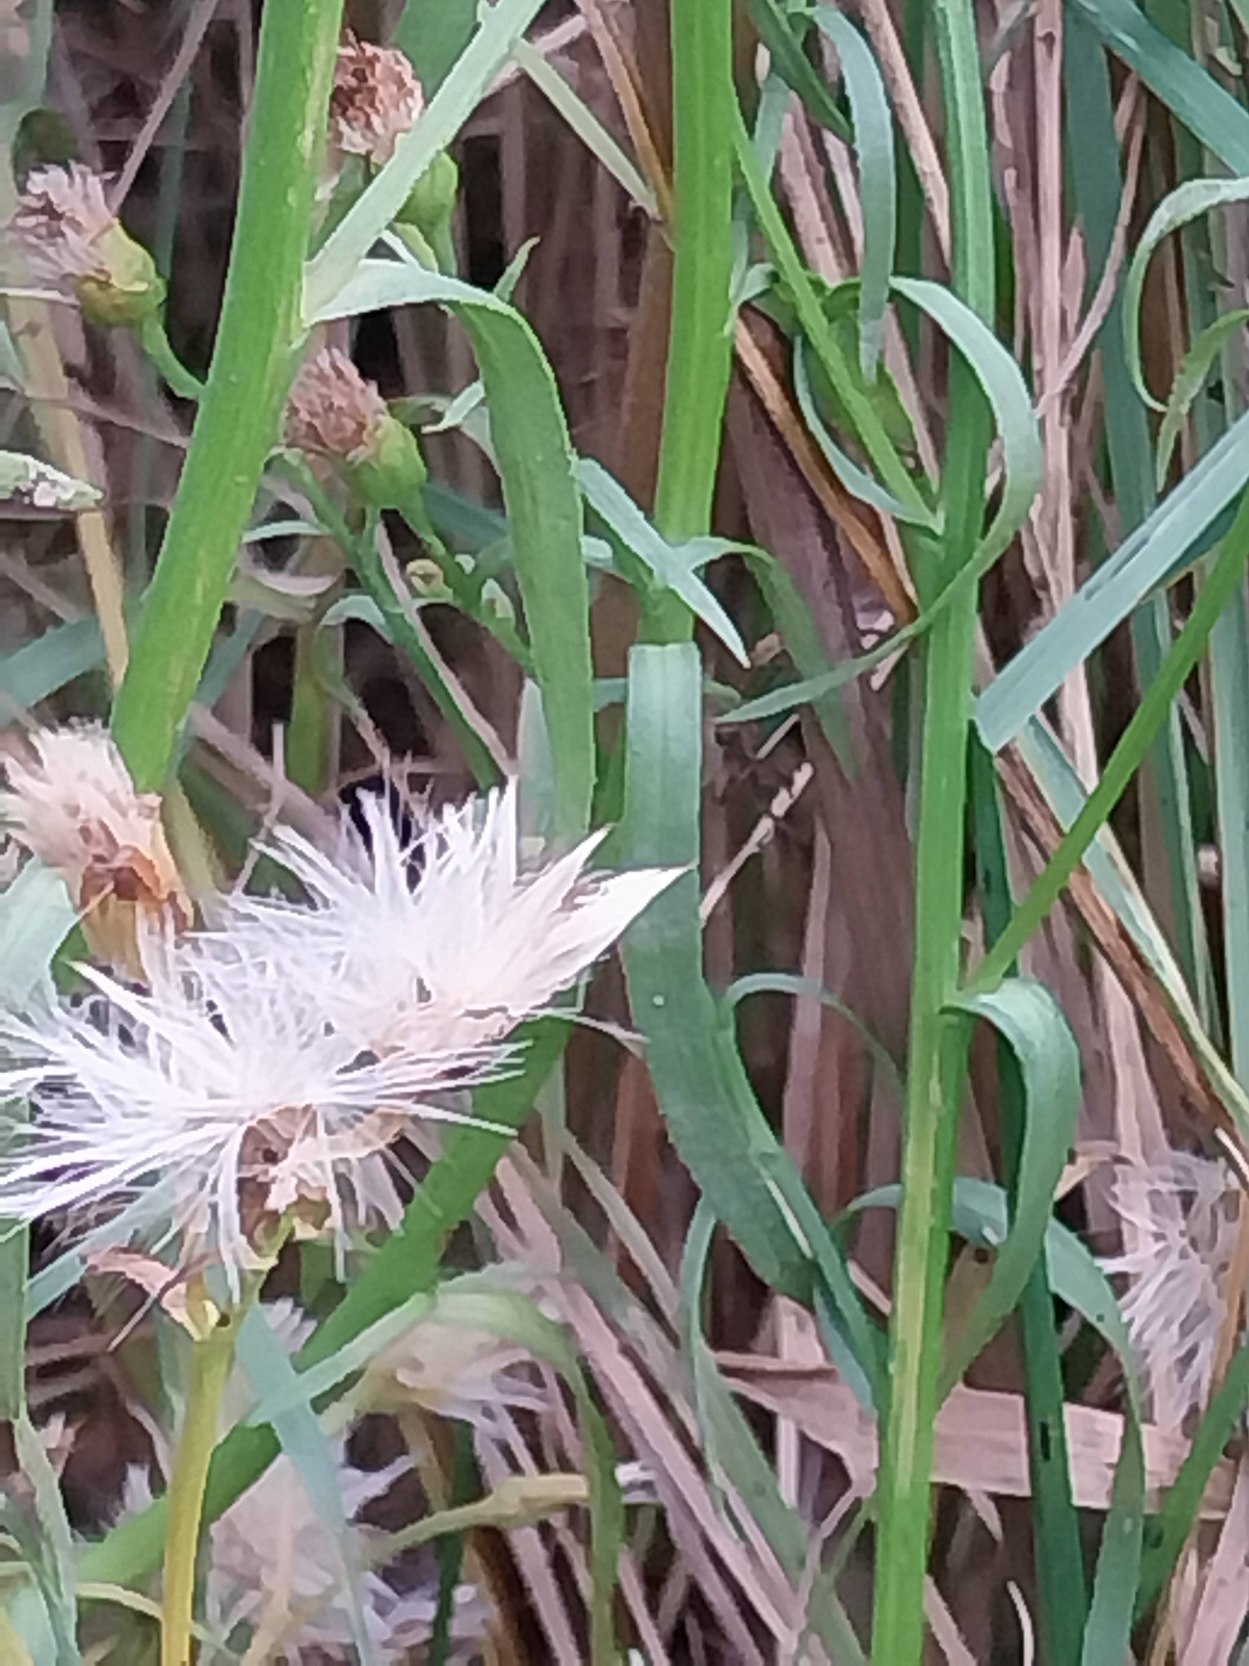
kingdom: Plantae
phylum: Tracheophyta
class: Magnoliopsida
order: Asterales
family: Asteraceae
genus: Tripolium
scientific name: Tripolium pannonicum
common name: Strandasters
